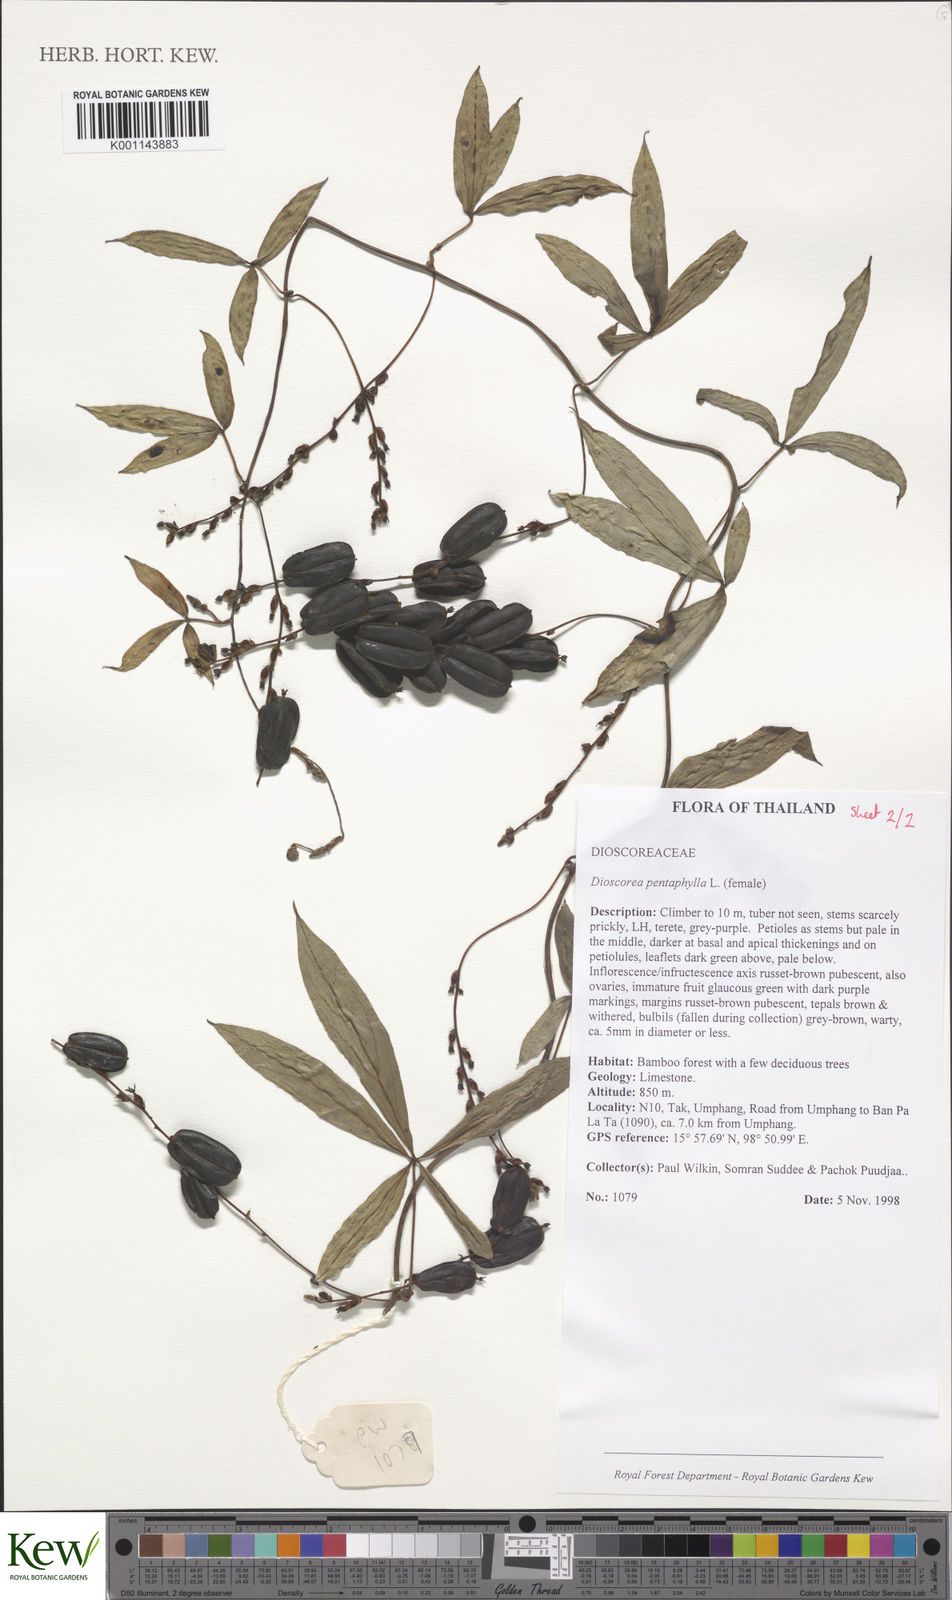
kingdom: Plantae
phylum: Tracheophyta
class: Liliopsida
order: Dioscoreales
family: Dioscoreaceae
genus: Dioscorea
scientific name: Dioscorea pentaphylla
